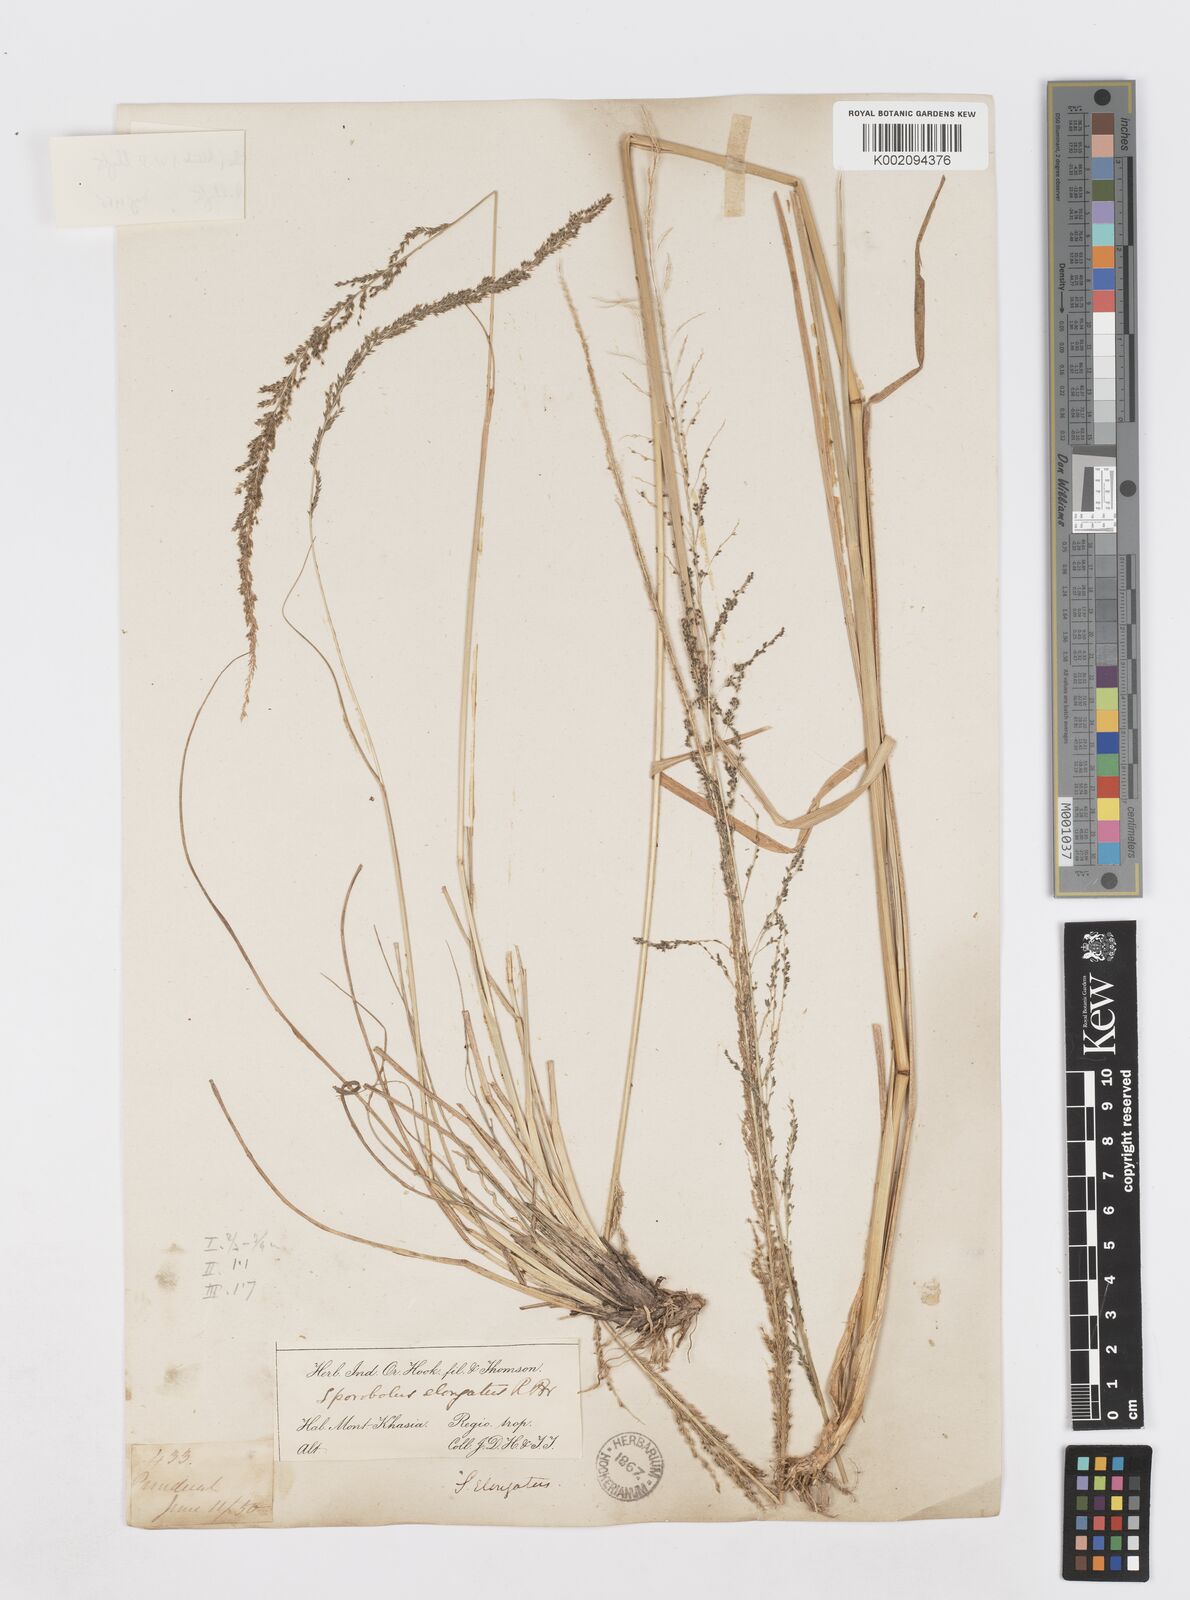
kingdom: Plantae
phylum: Tracheophyta
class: Liliopsida
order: Poales
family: Poaceae
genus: Sporobolus
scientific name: Sporobolus fertilis
